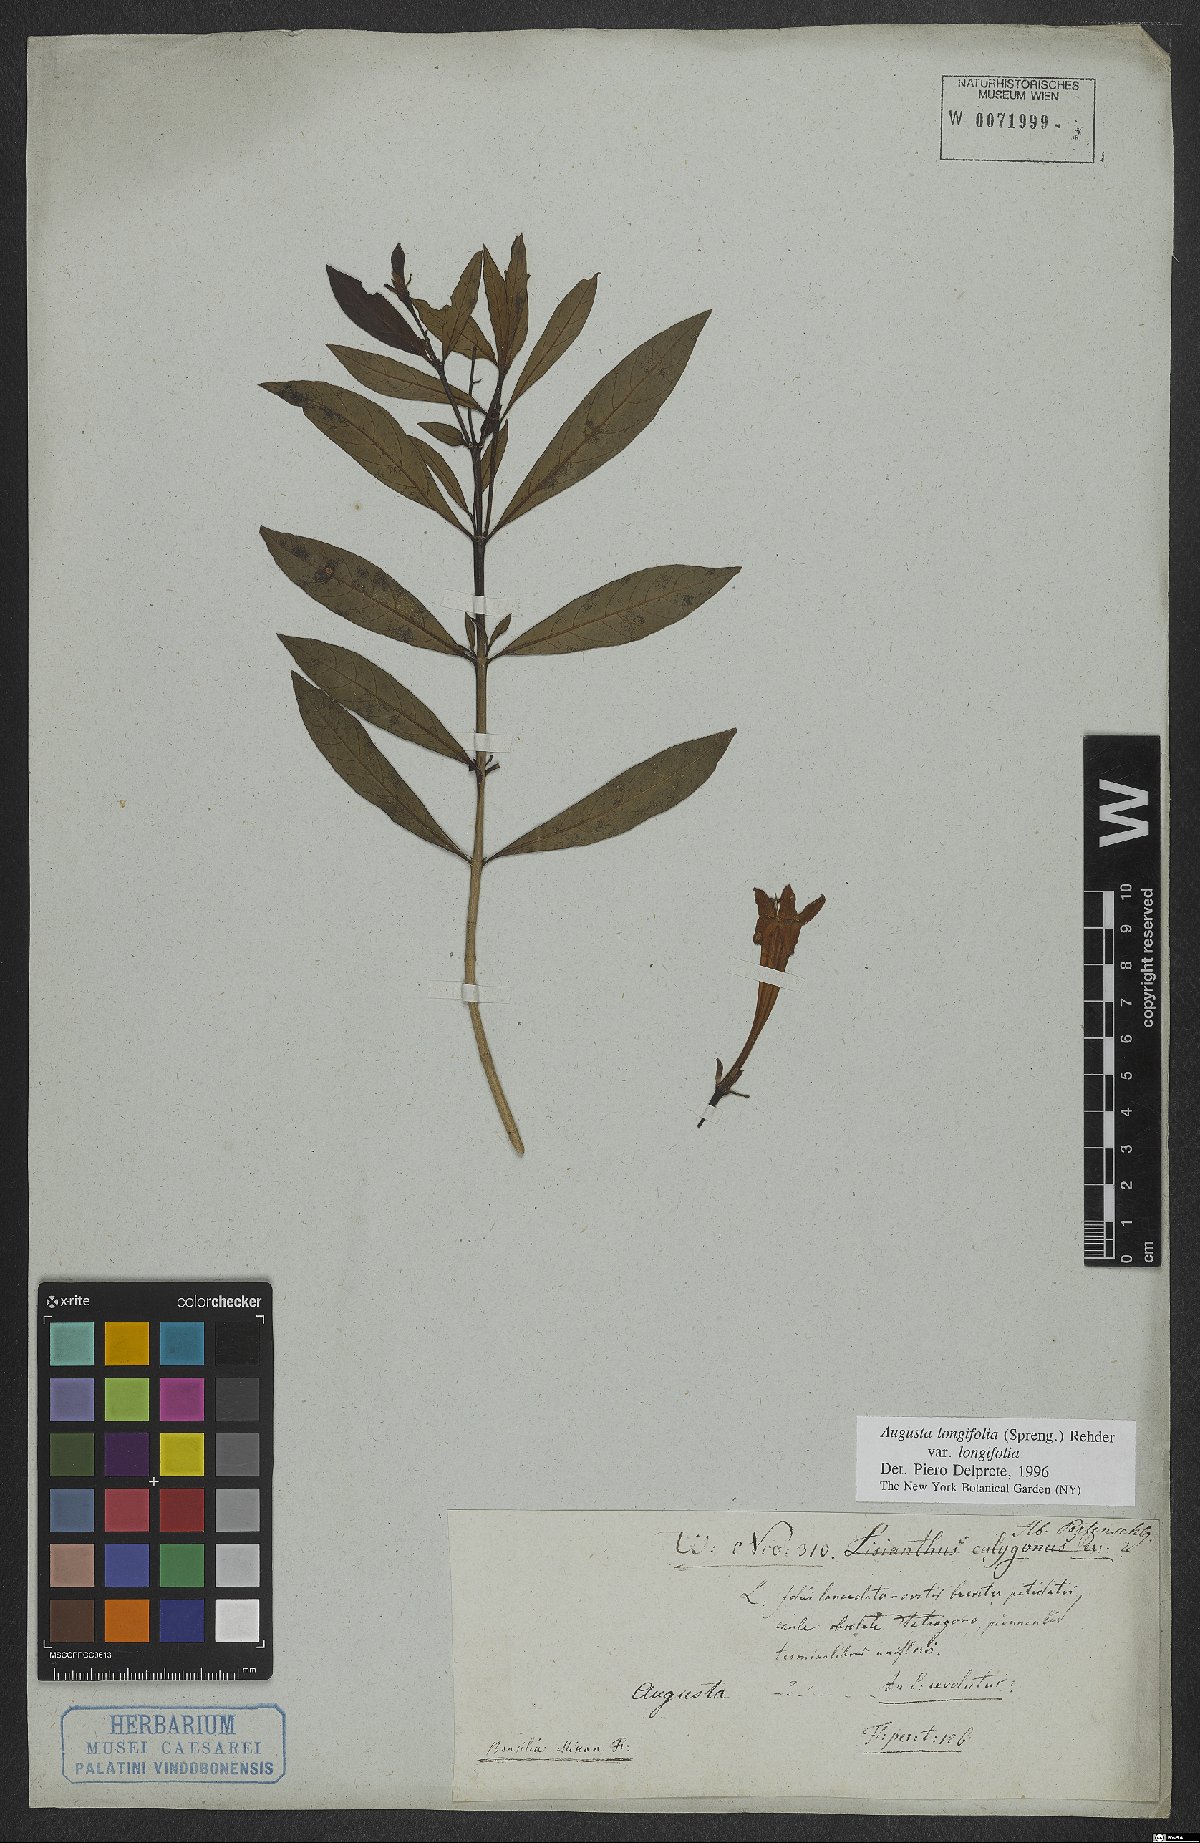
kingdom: Plantae
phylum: Tracheophyta
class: Magnoliopsida
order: Gentianales
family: Rubiaceae
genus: Augusta
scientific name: Augusta longifolia
